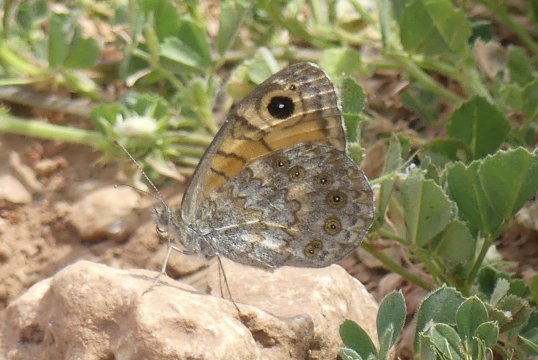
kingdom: Animalia
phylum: Arthropoda
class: Insecta
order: Lepidoptera
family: Nymphalidae
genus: Pararge
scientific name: Pararge Lasiommata megera
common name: Wall
